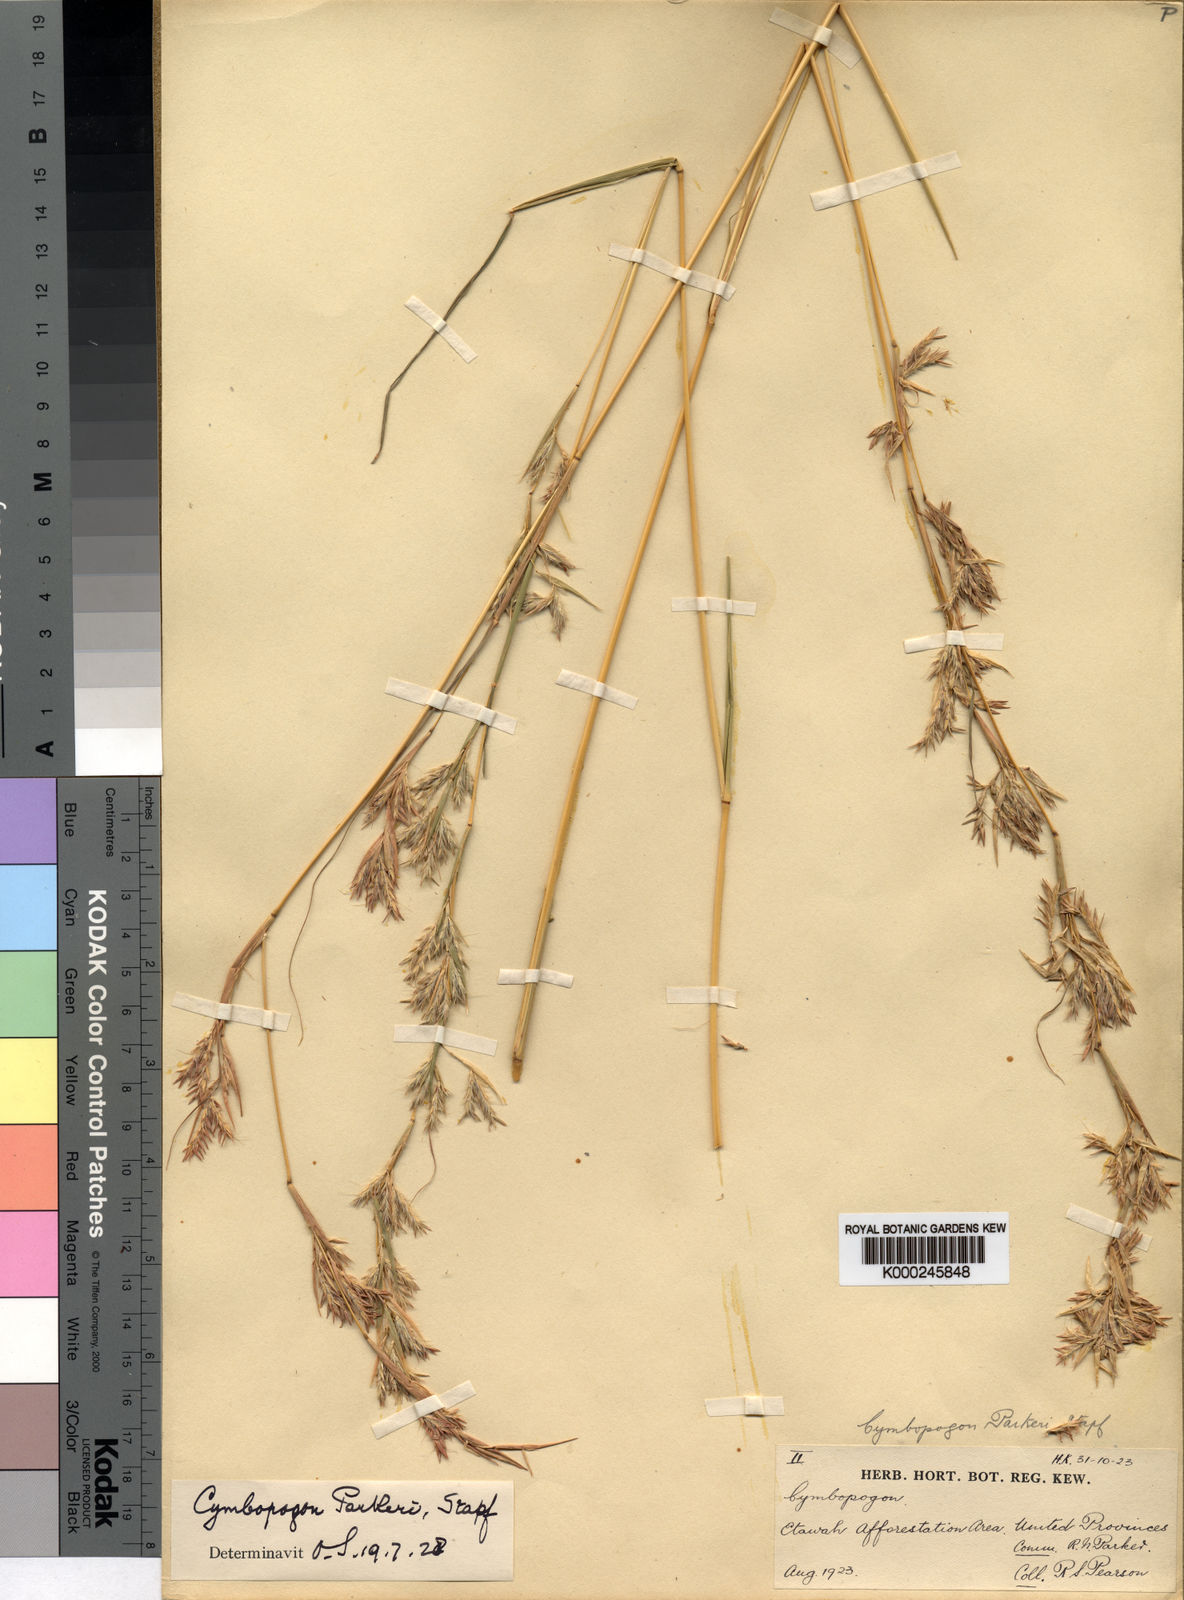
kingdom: Plantae
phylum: Tracheophyta
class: Liliopsida
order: Poales
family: Poaceae
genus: Cymbopogon
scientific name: Cymbopogon commutatus
